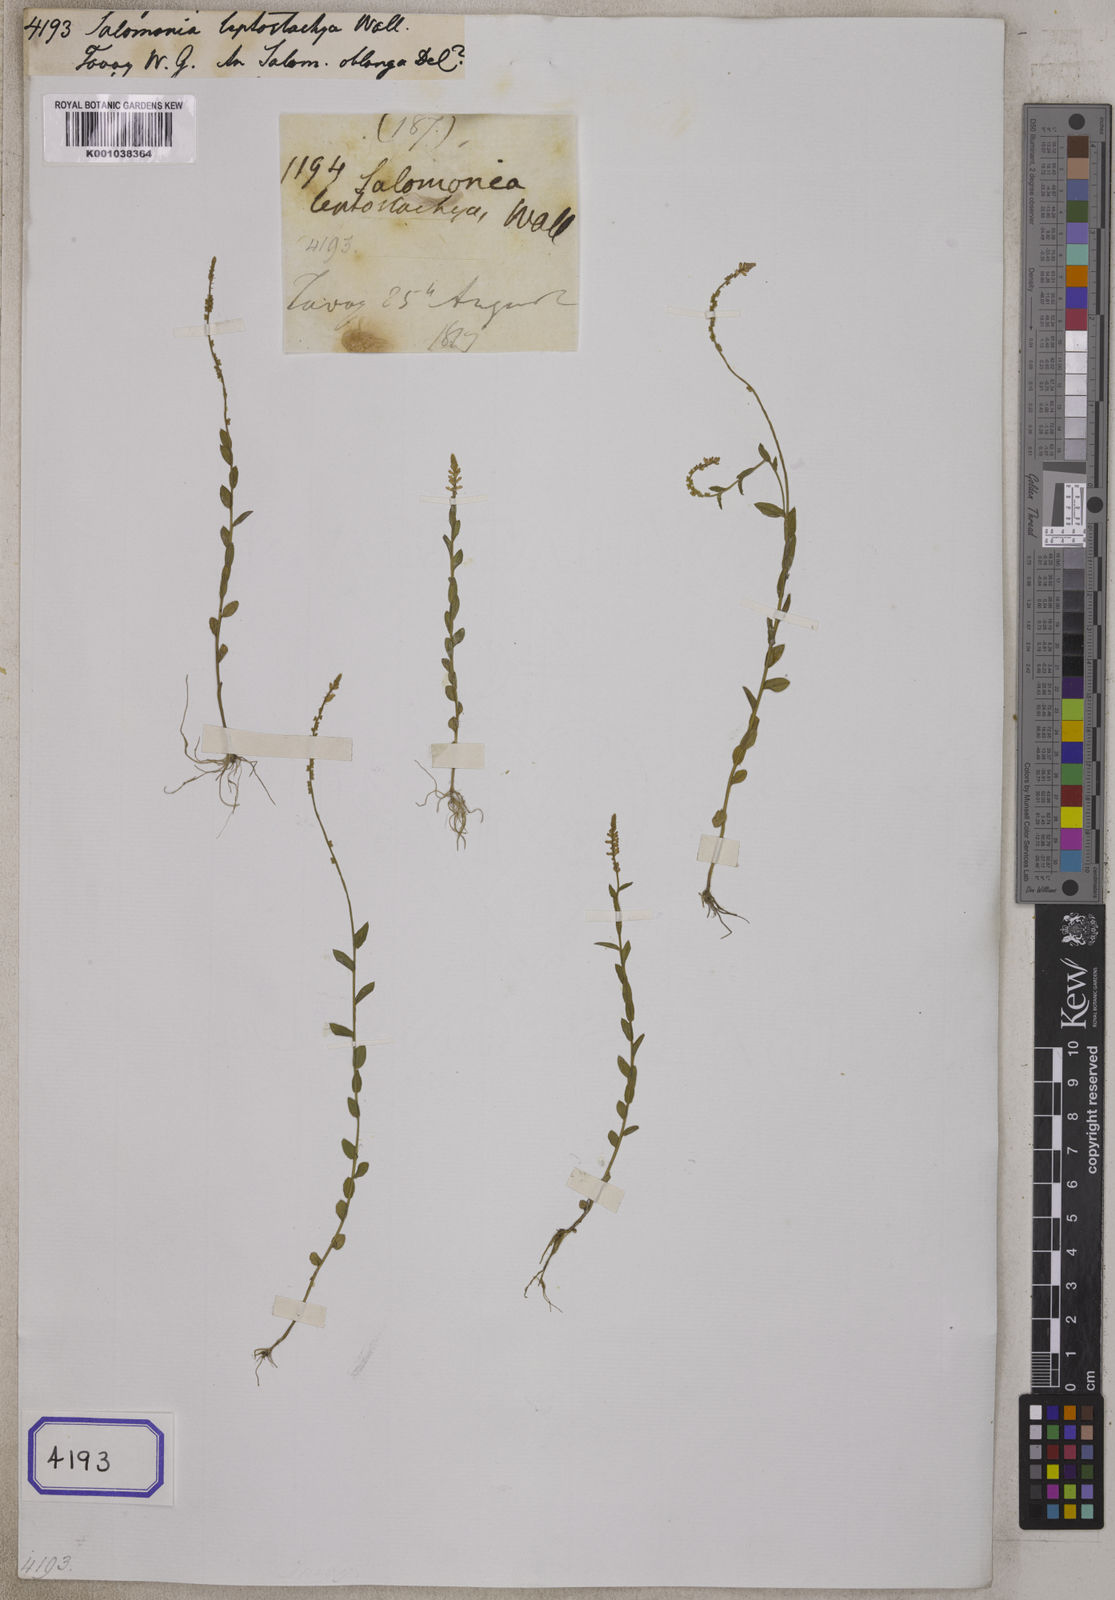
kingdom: Plantae
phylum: Tracheophyta
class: Magnoliopsida
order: Fabales
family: Polygalaceae
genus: Salomonia
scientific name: Salomonia ciliata
